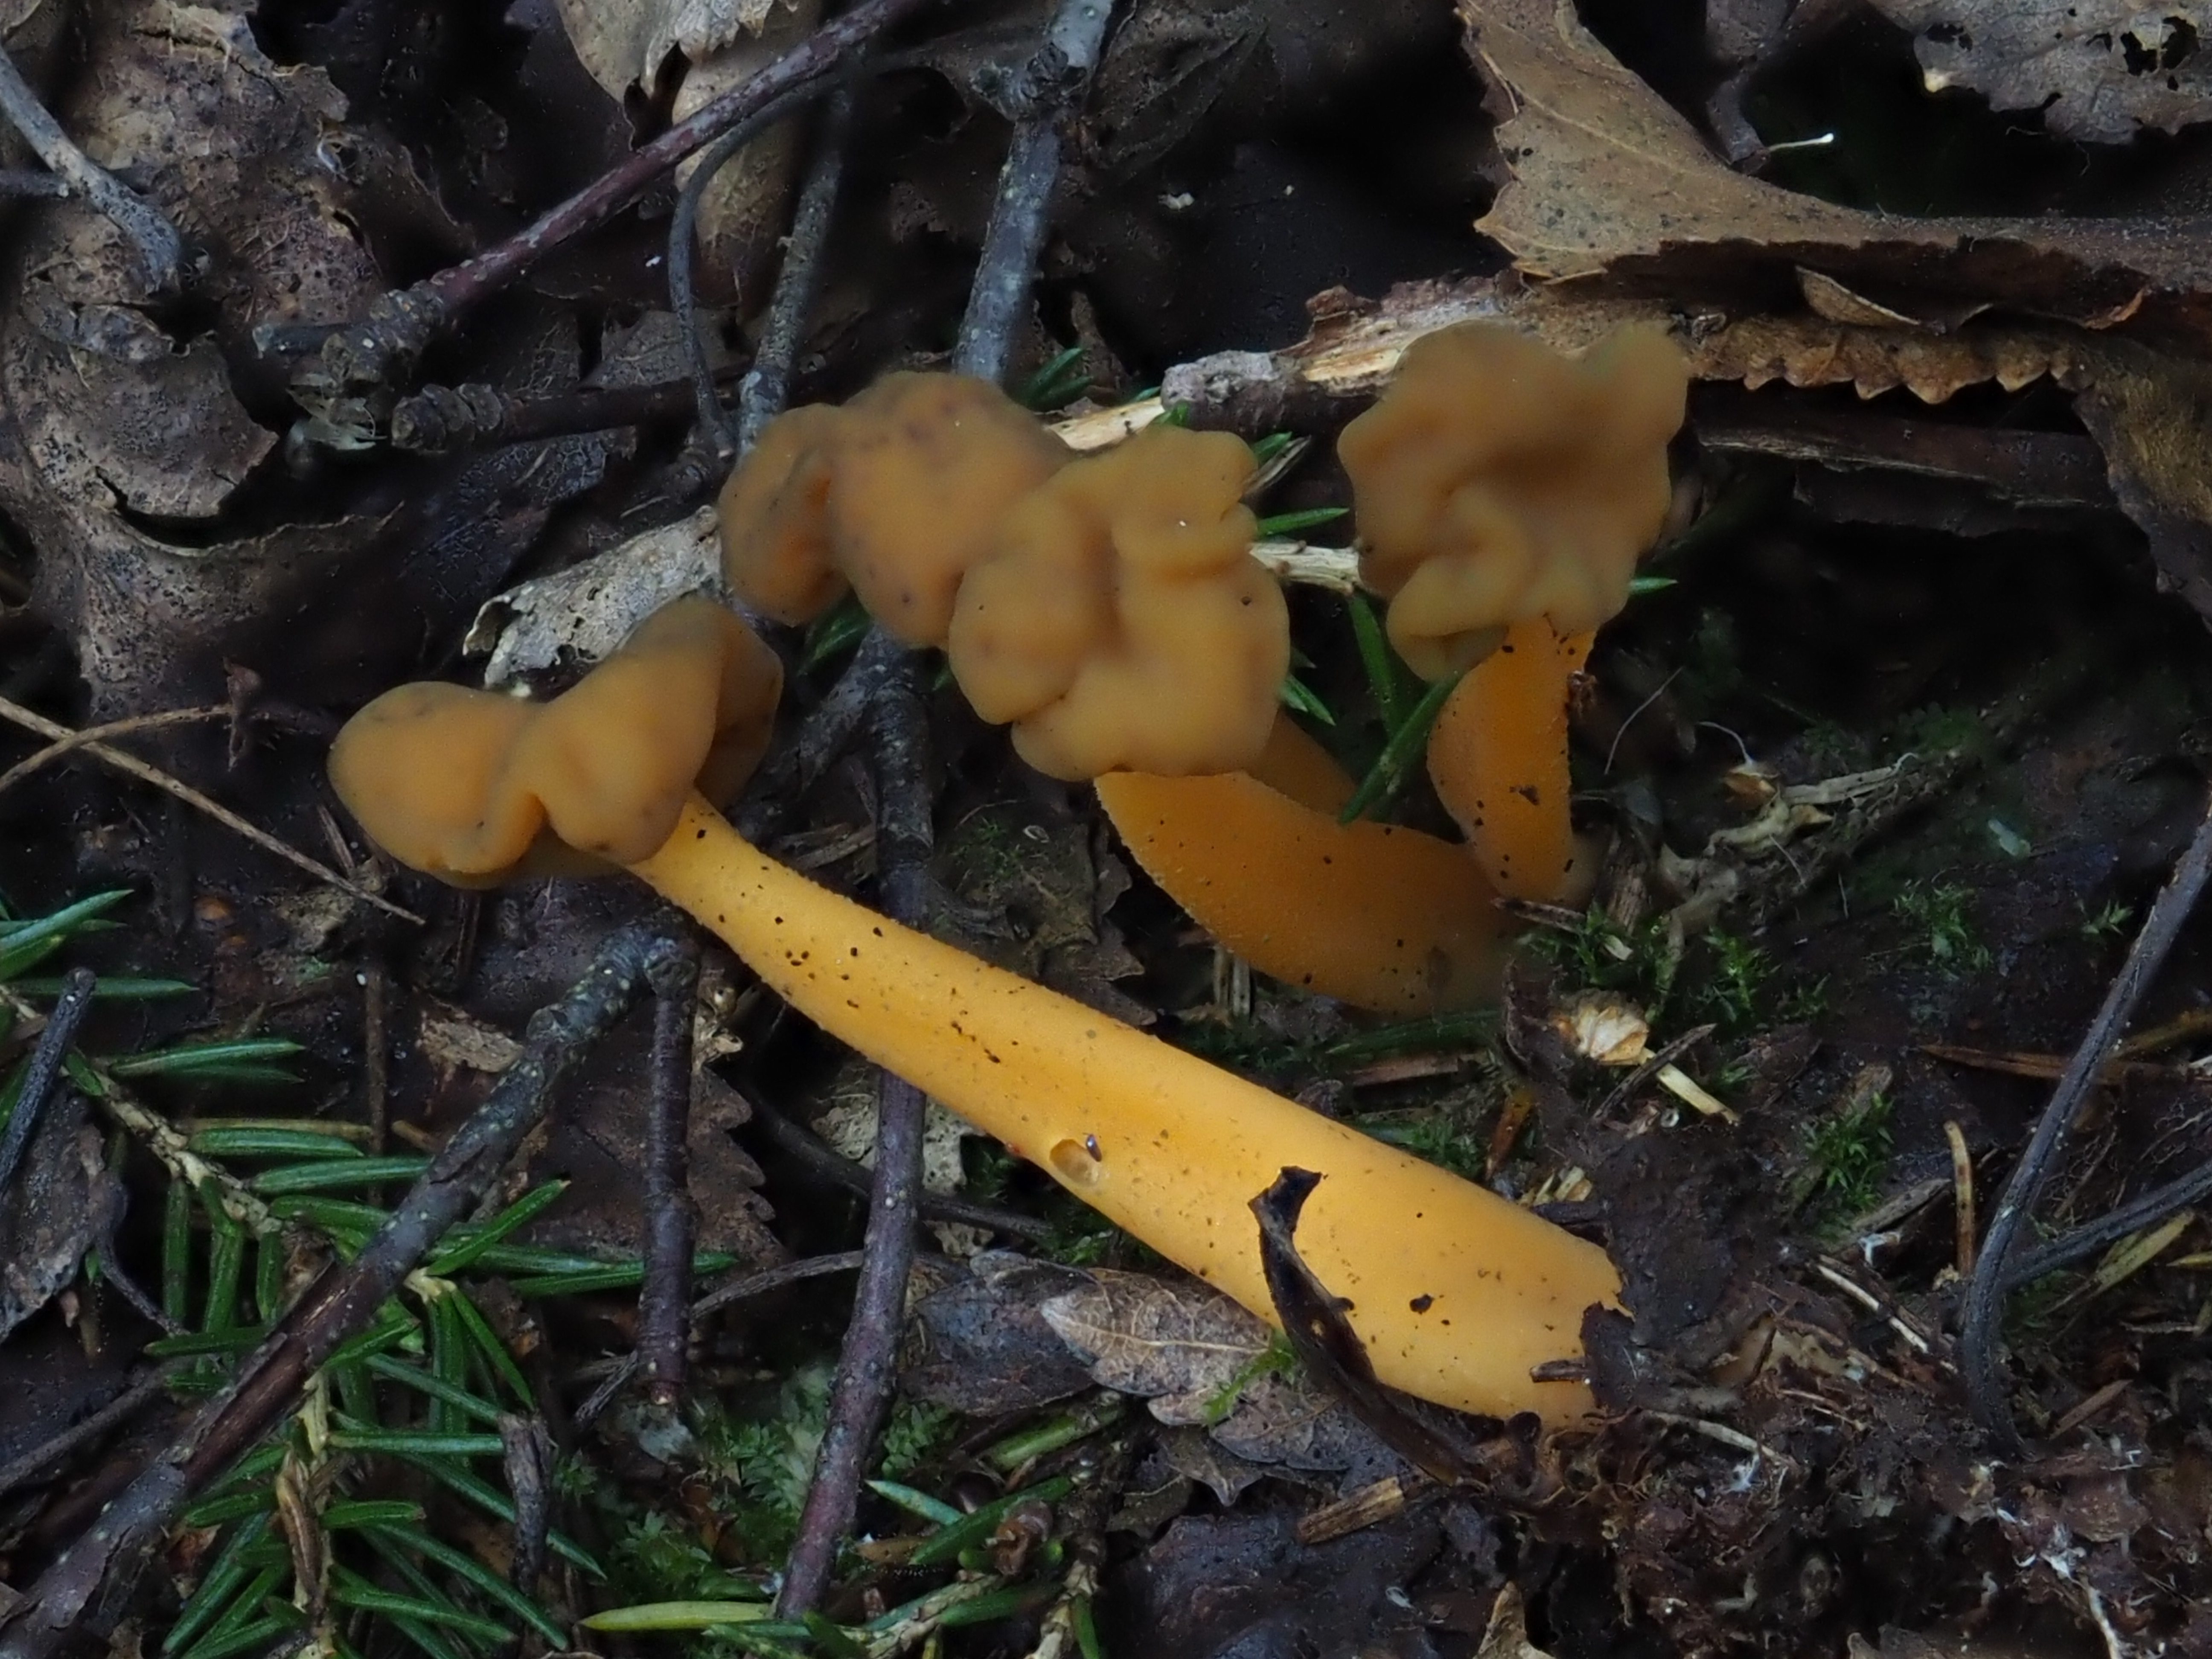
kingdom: Fungi
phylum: Ascomycota
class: Leotiomycetes
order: Leotiales
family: Leotiaceae
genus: Leotia
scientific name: Leotia lubrica
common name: Jellybaby
